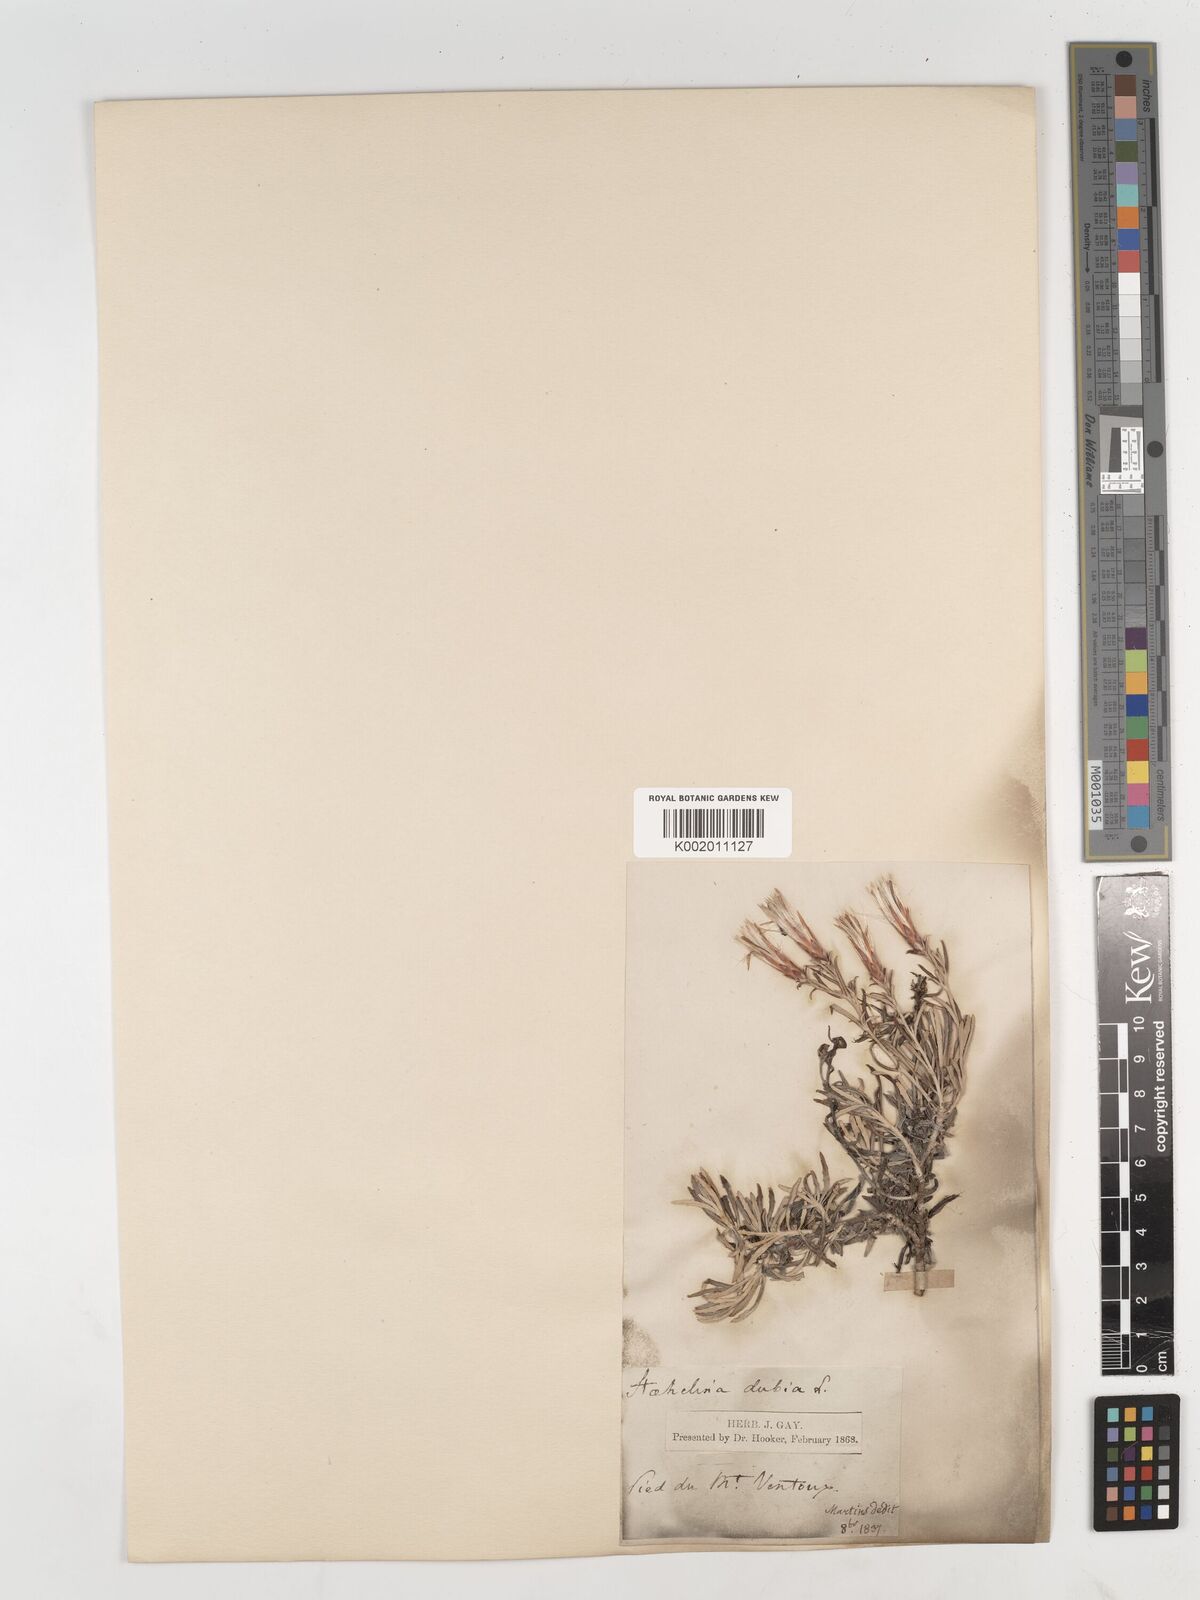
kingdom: Plantae
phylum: Tracheophyta
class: Magnoliopsida
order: Asterales
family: Asteraceae
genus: Staehelina
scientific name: Staehelina dubia
